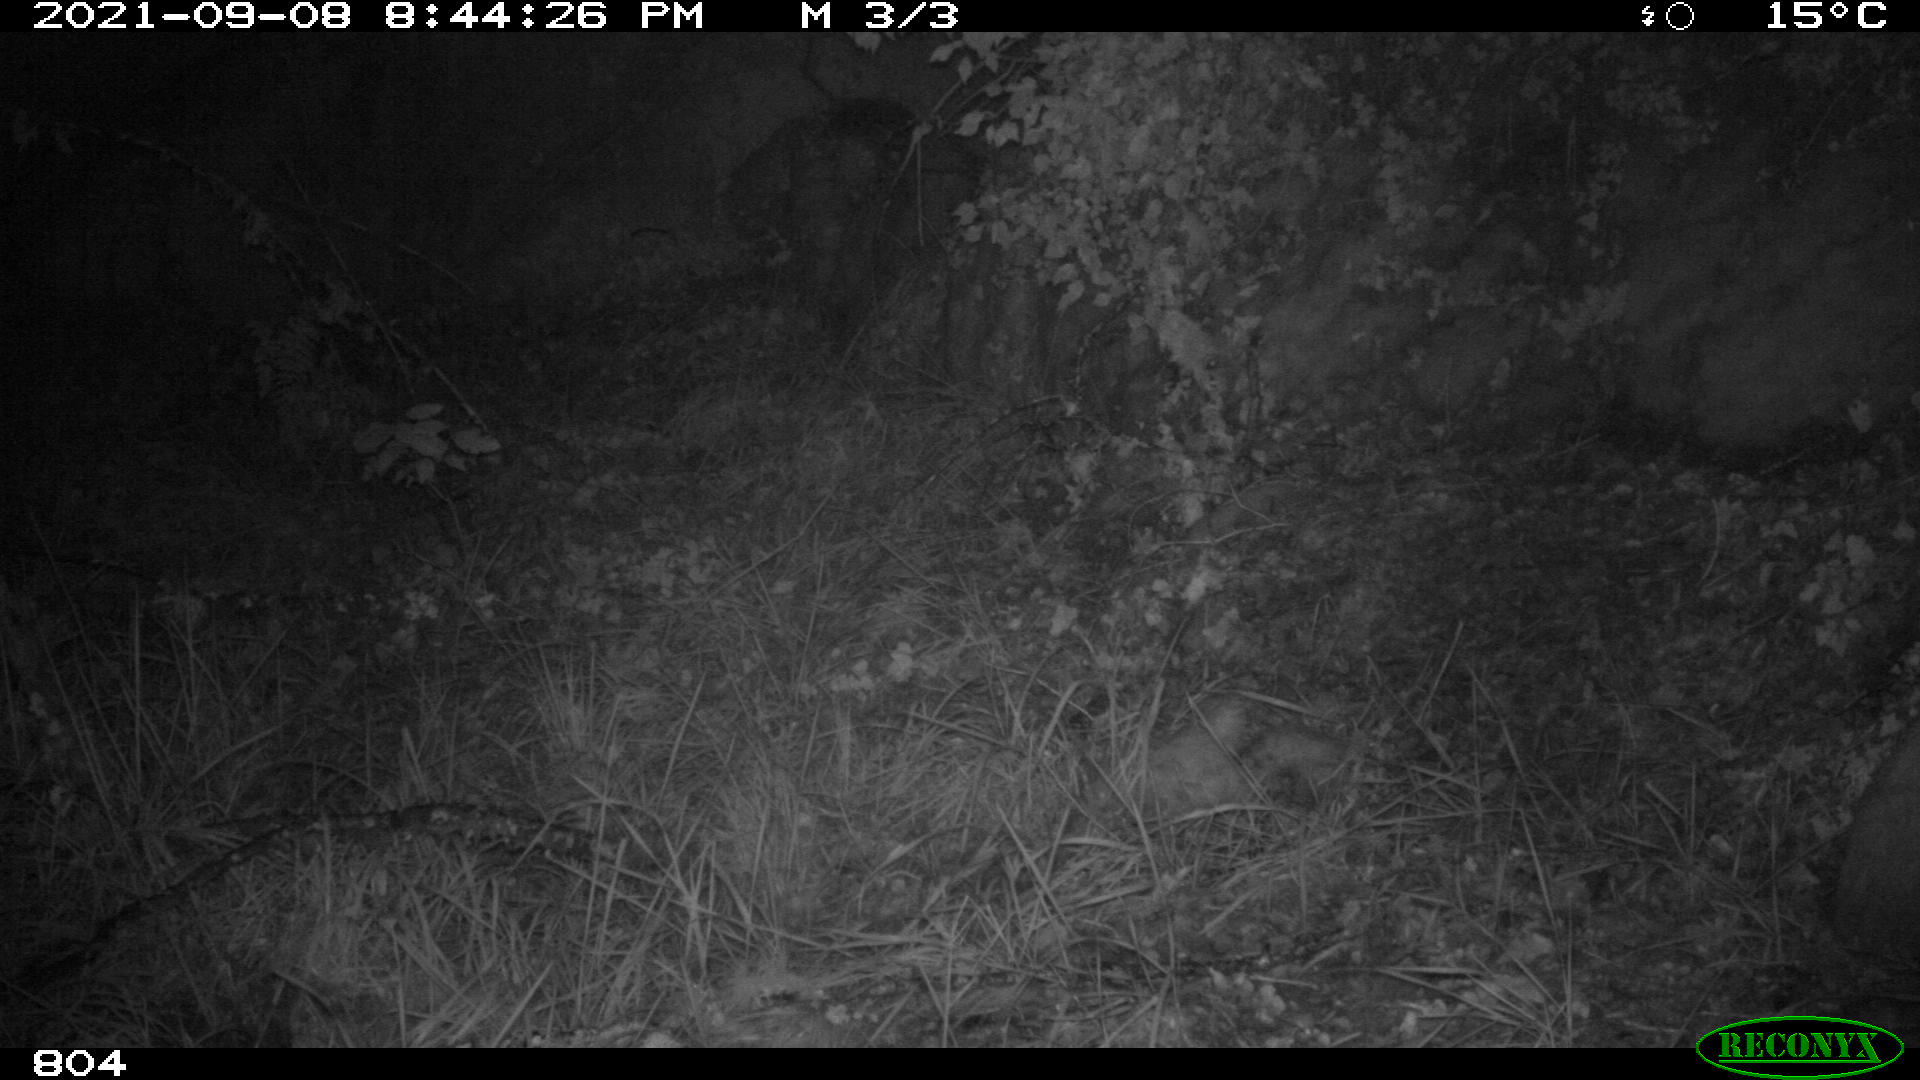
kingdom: Animalia
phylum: Chordata
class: Mammalia
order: Artiodactyla
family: Suidae
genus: Sus
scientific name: Sus scrofa
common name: Wild boar
